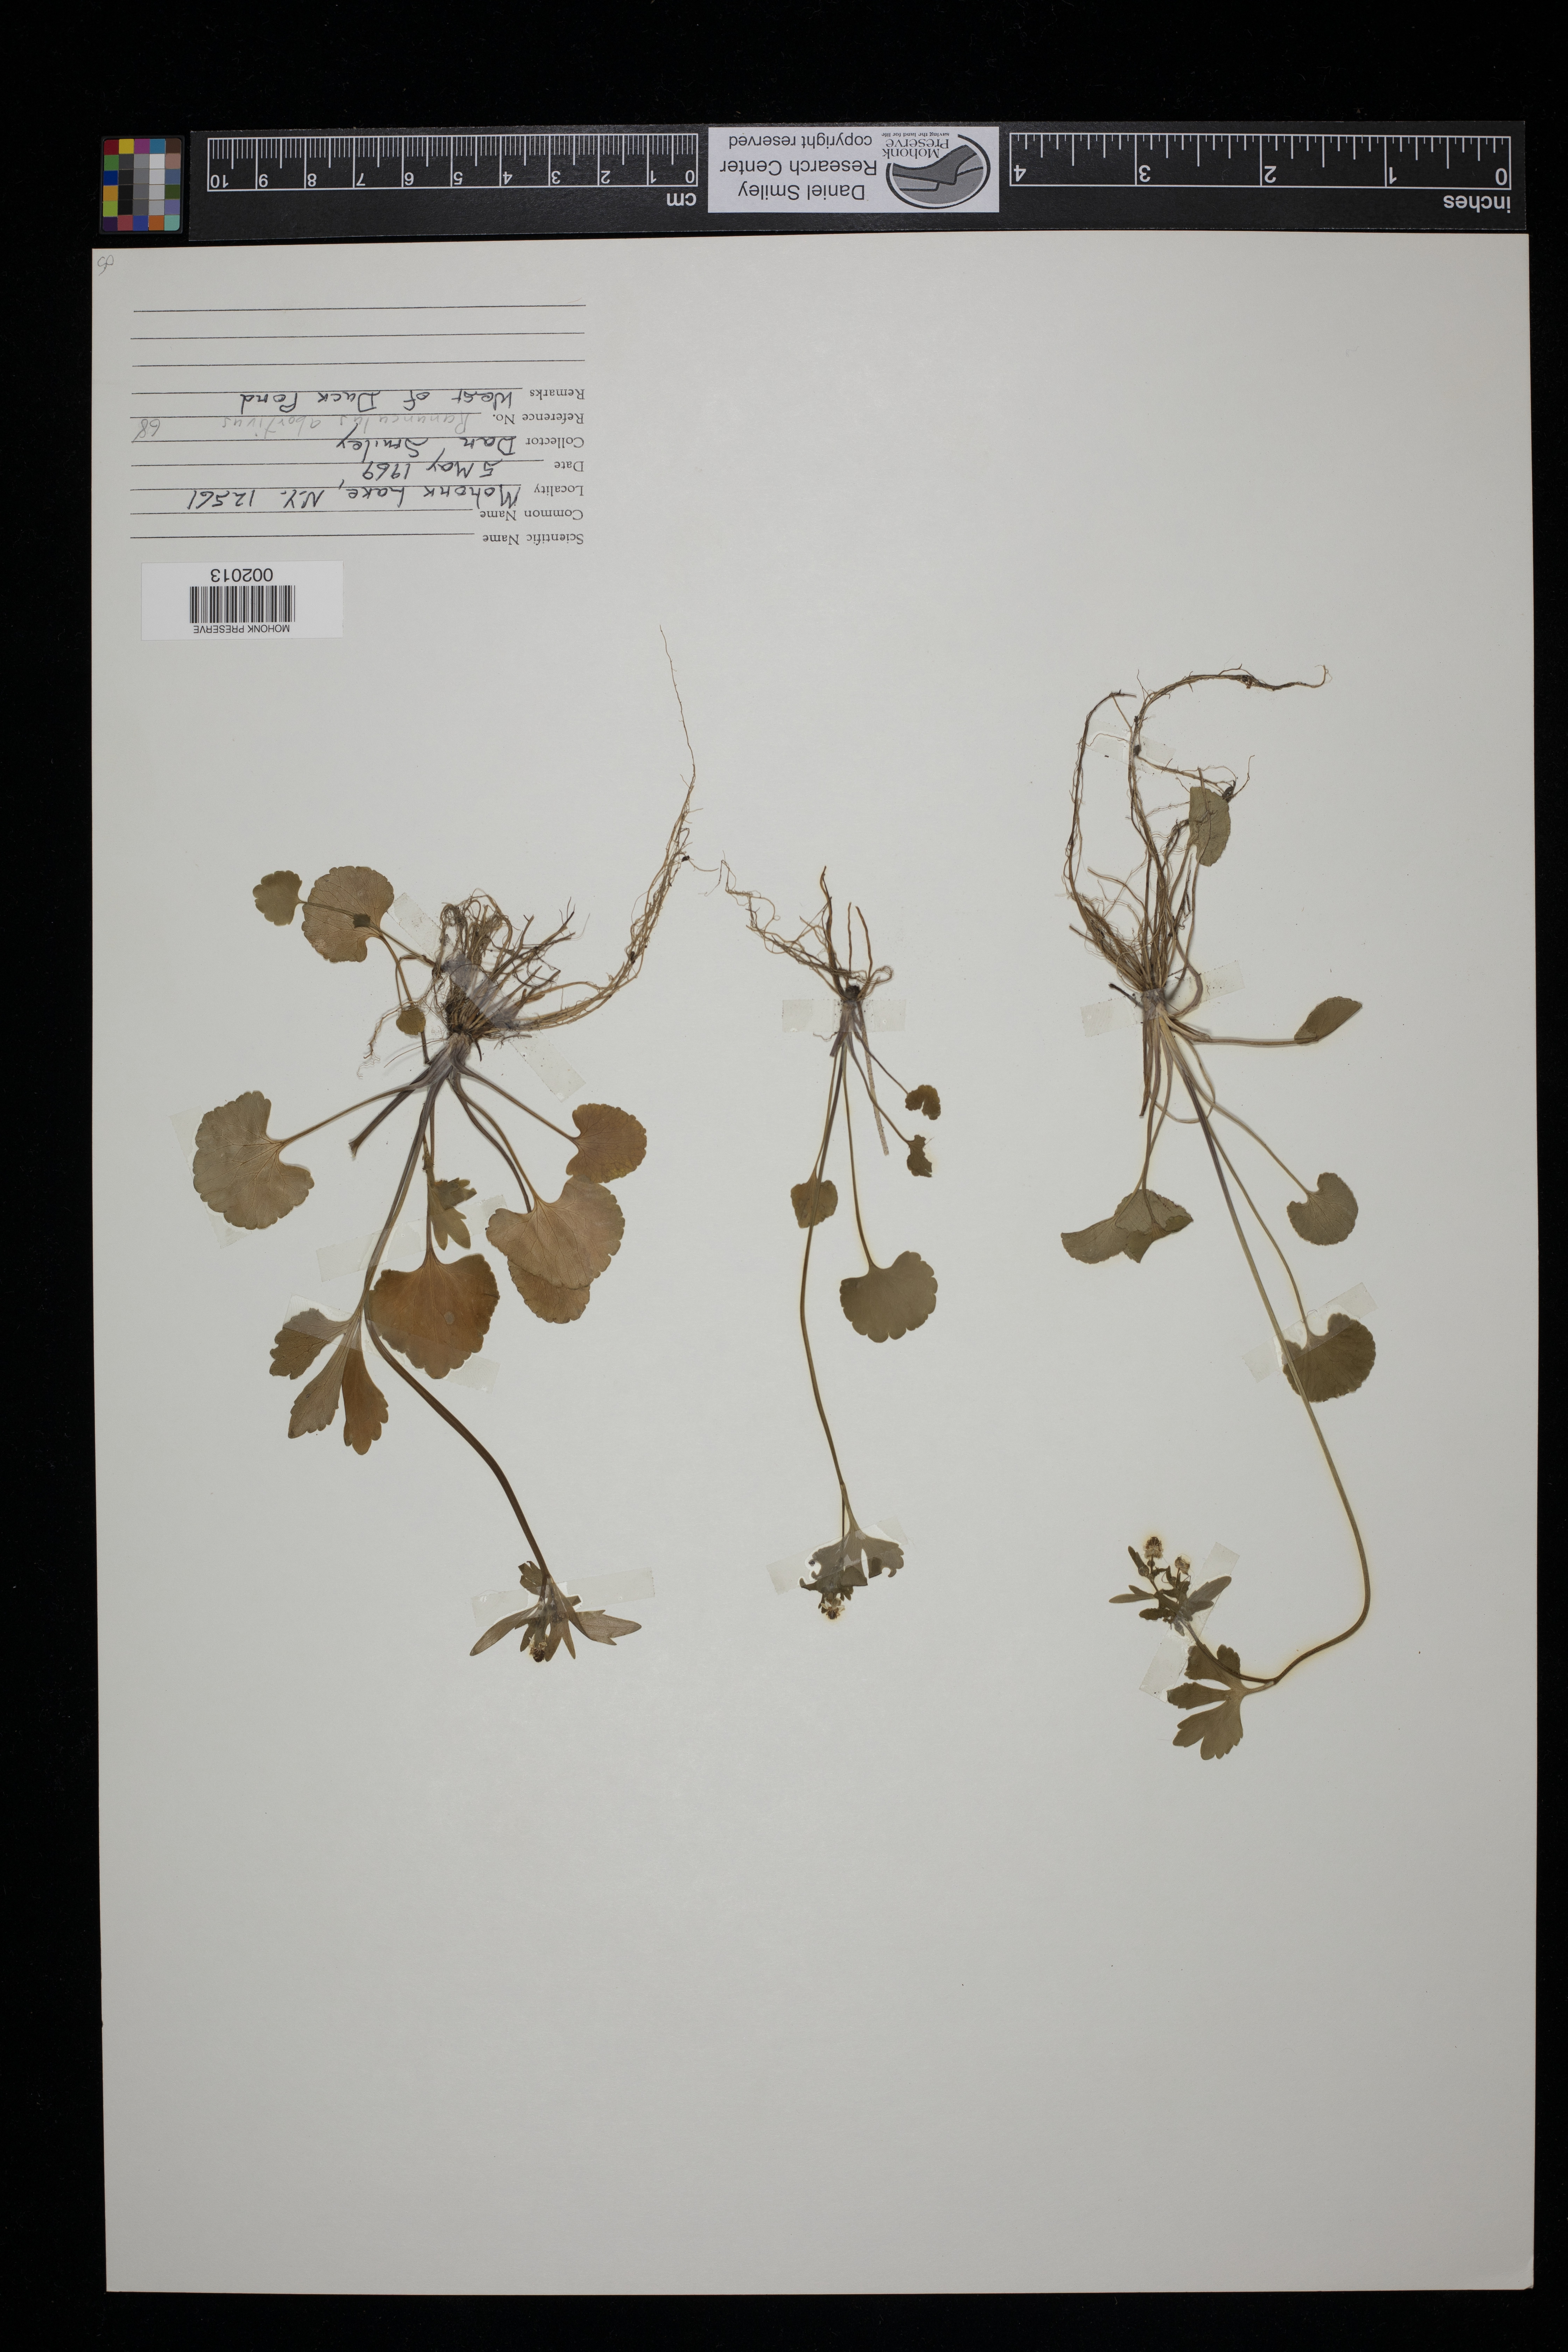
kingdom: Plantae
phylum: Tracheophyta
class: Magnoliopsida
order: Ranunculales
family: Ranunculaceae
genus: Ranunculus
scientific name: Ranunculus
